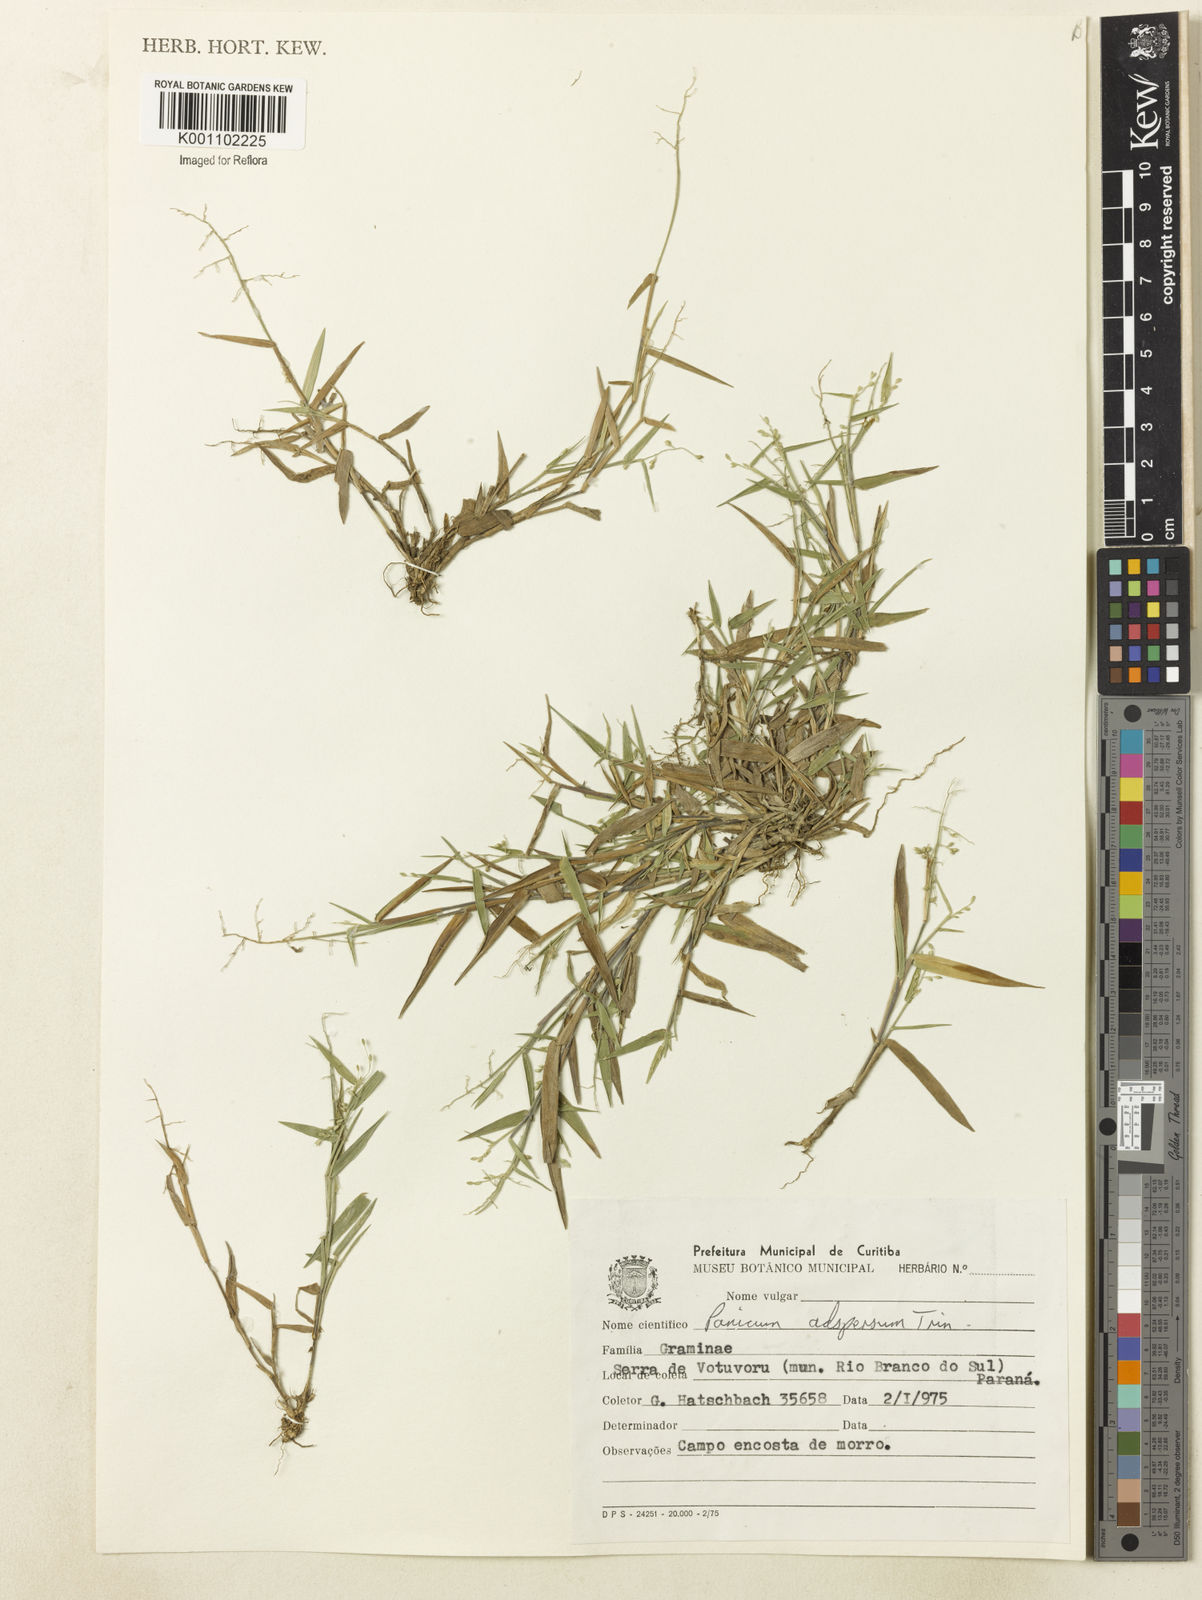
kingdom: Plantae
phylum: Tracheophyta
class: Liliopsida
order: Poales
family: Poaceae
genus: Dichanthelium
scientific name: Dichanthelium sabulorum
